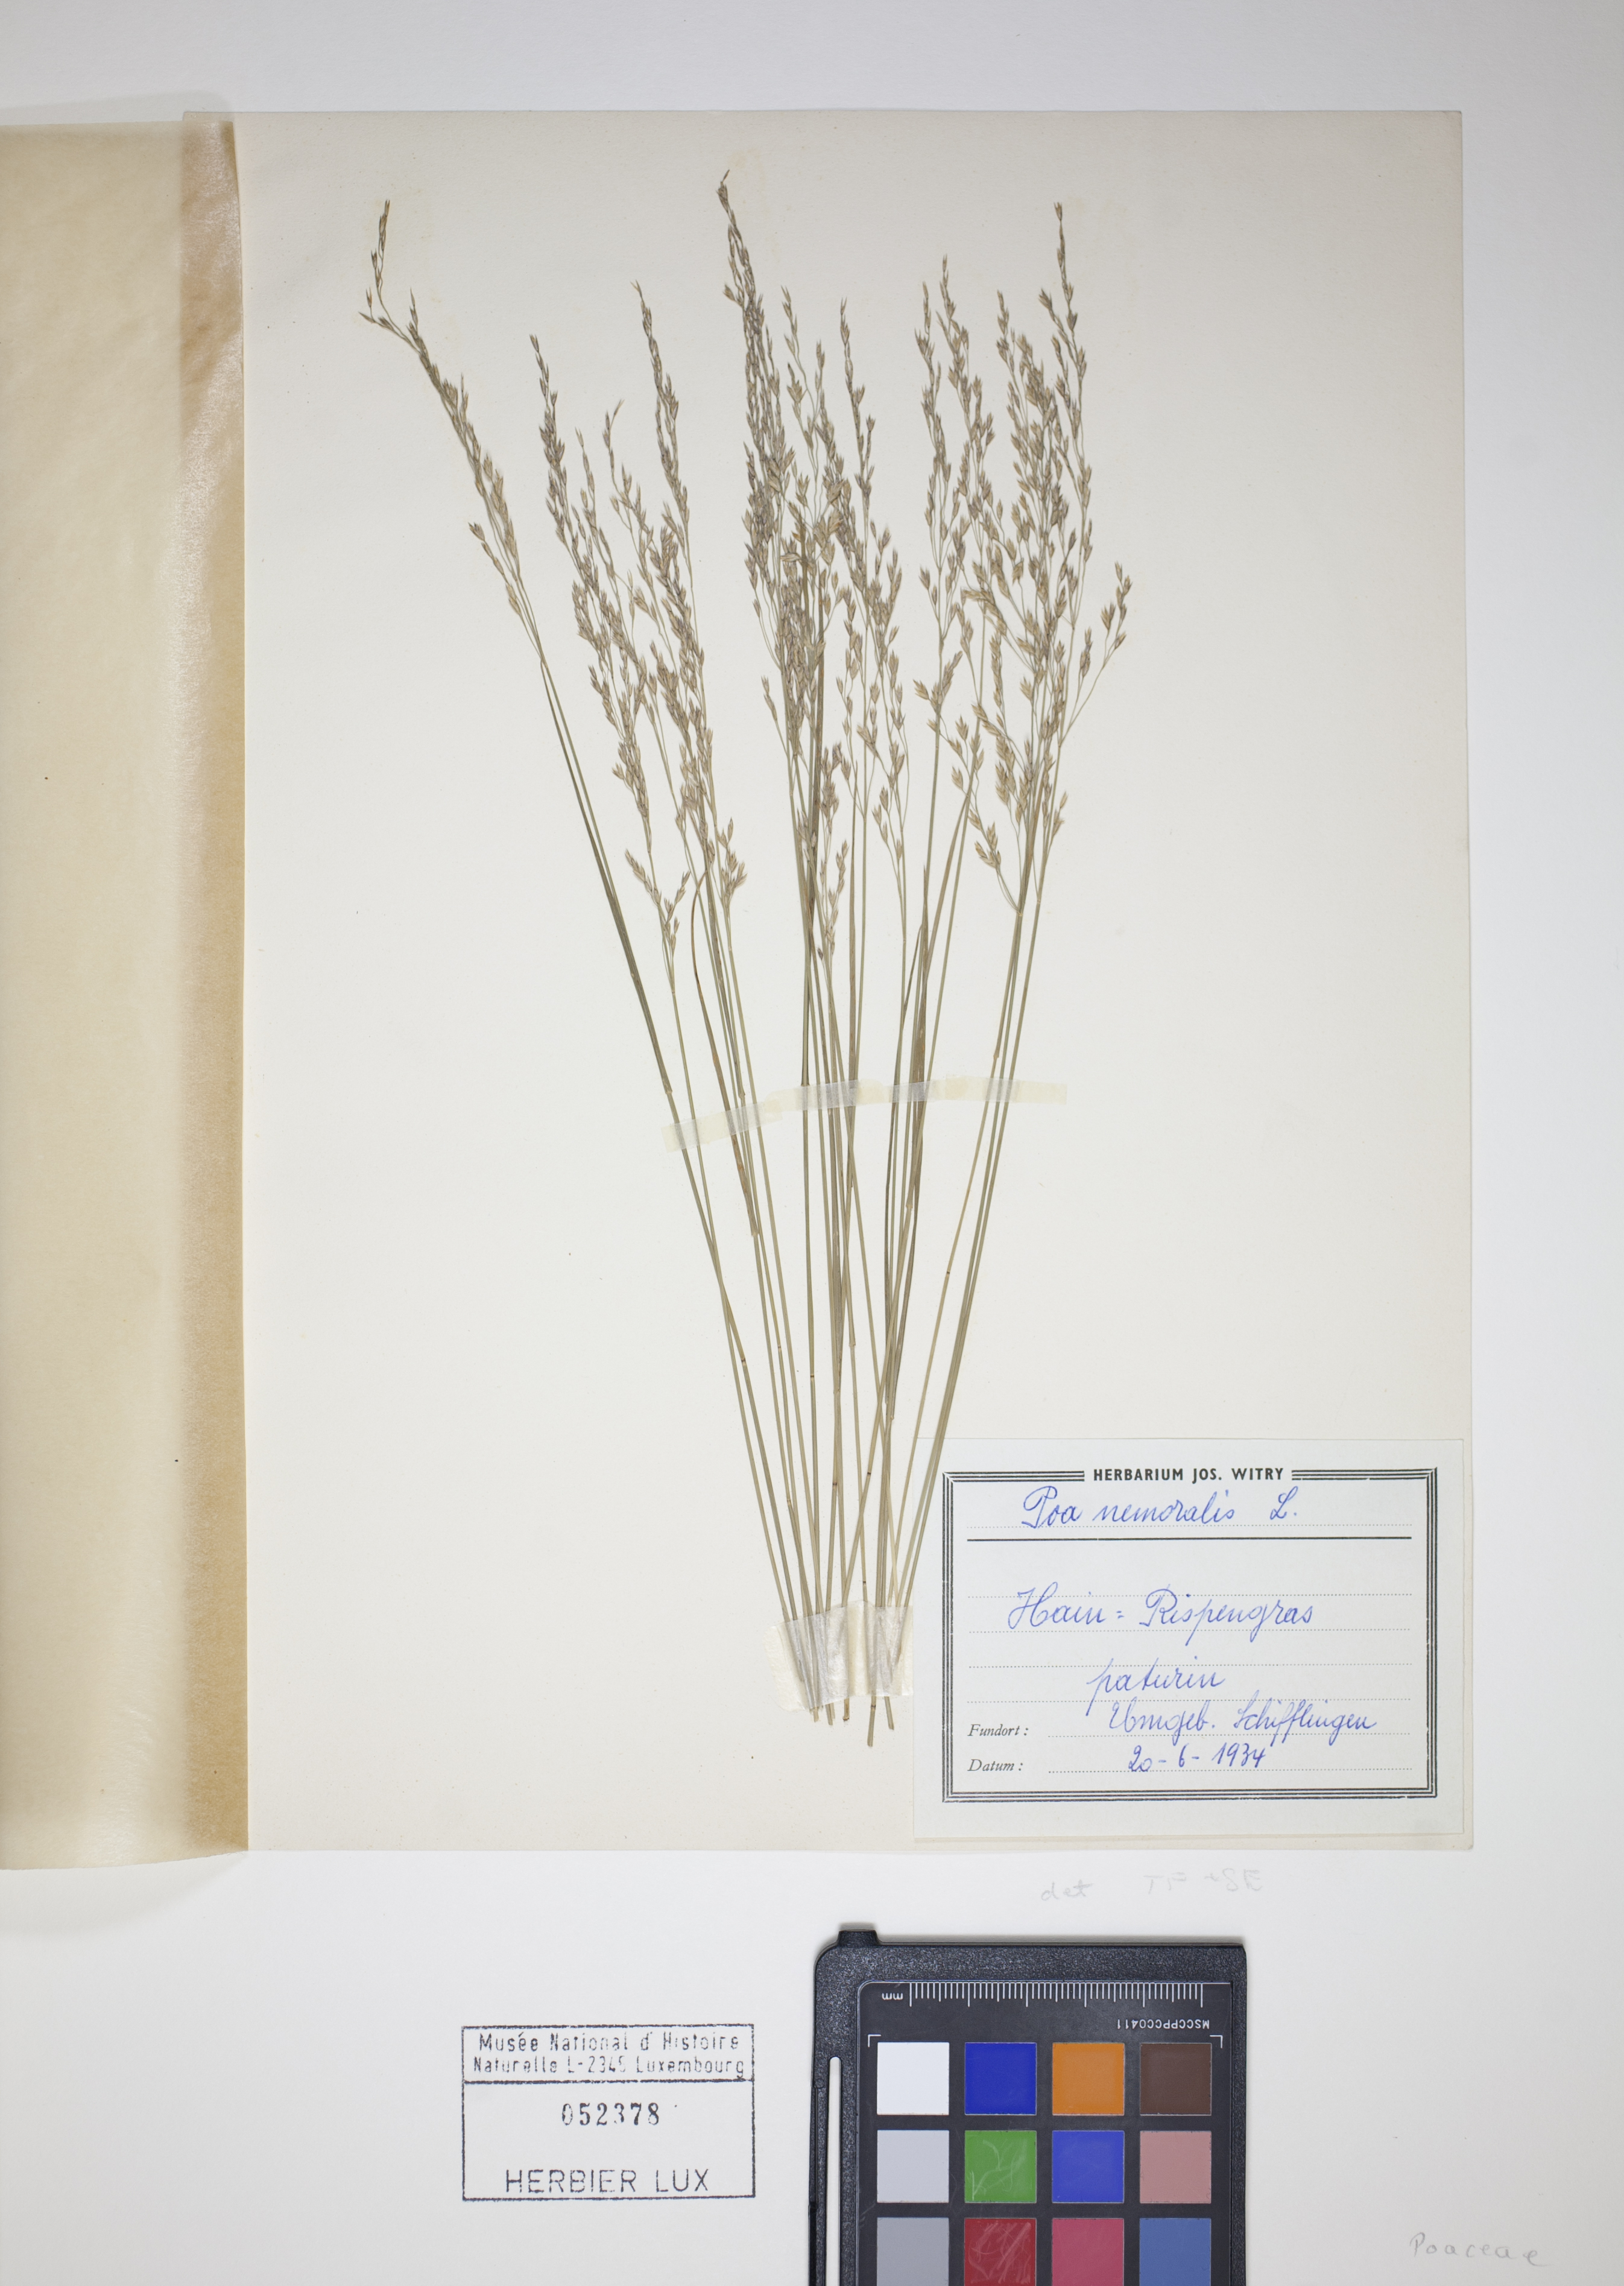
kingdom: Plantae
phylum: Tracheophyta
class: Liliopsida
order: Poales
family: Poaceae
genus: Poa
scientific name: Poa nemoralis
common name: Wood bluegrass
